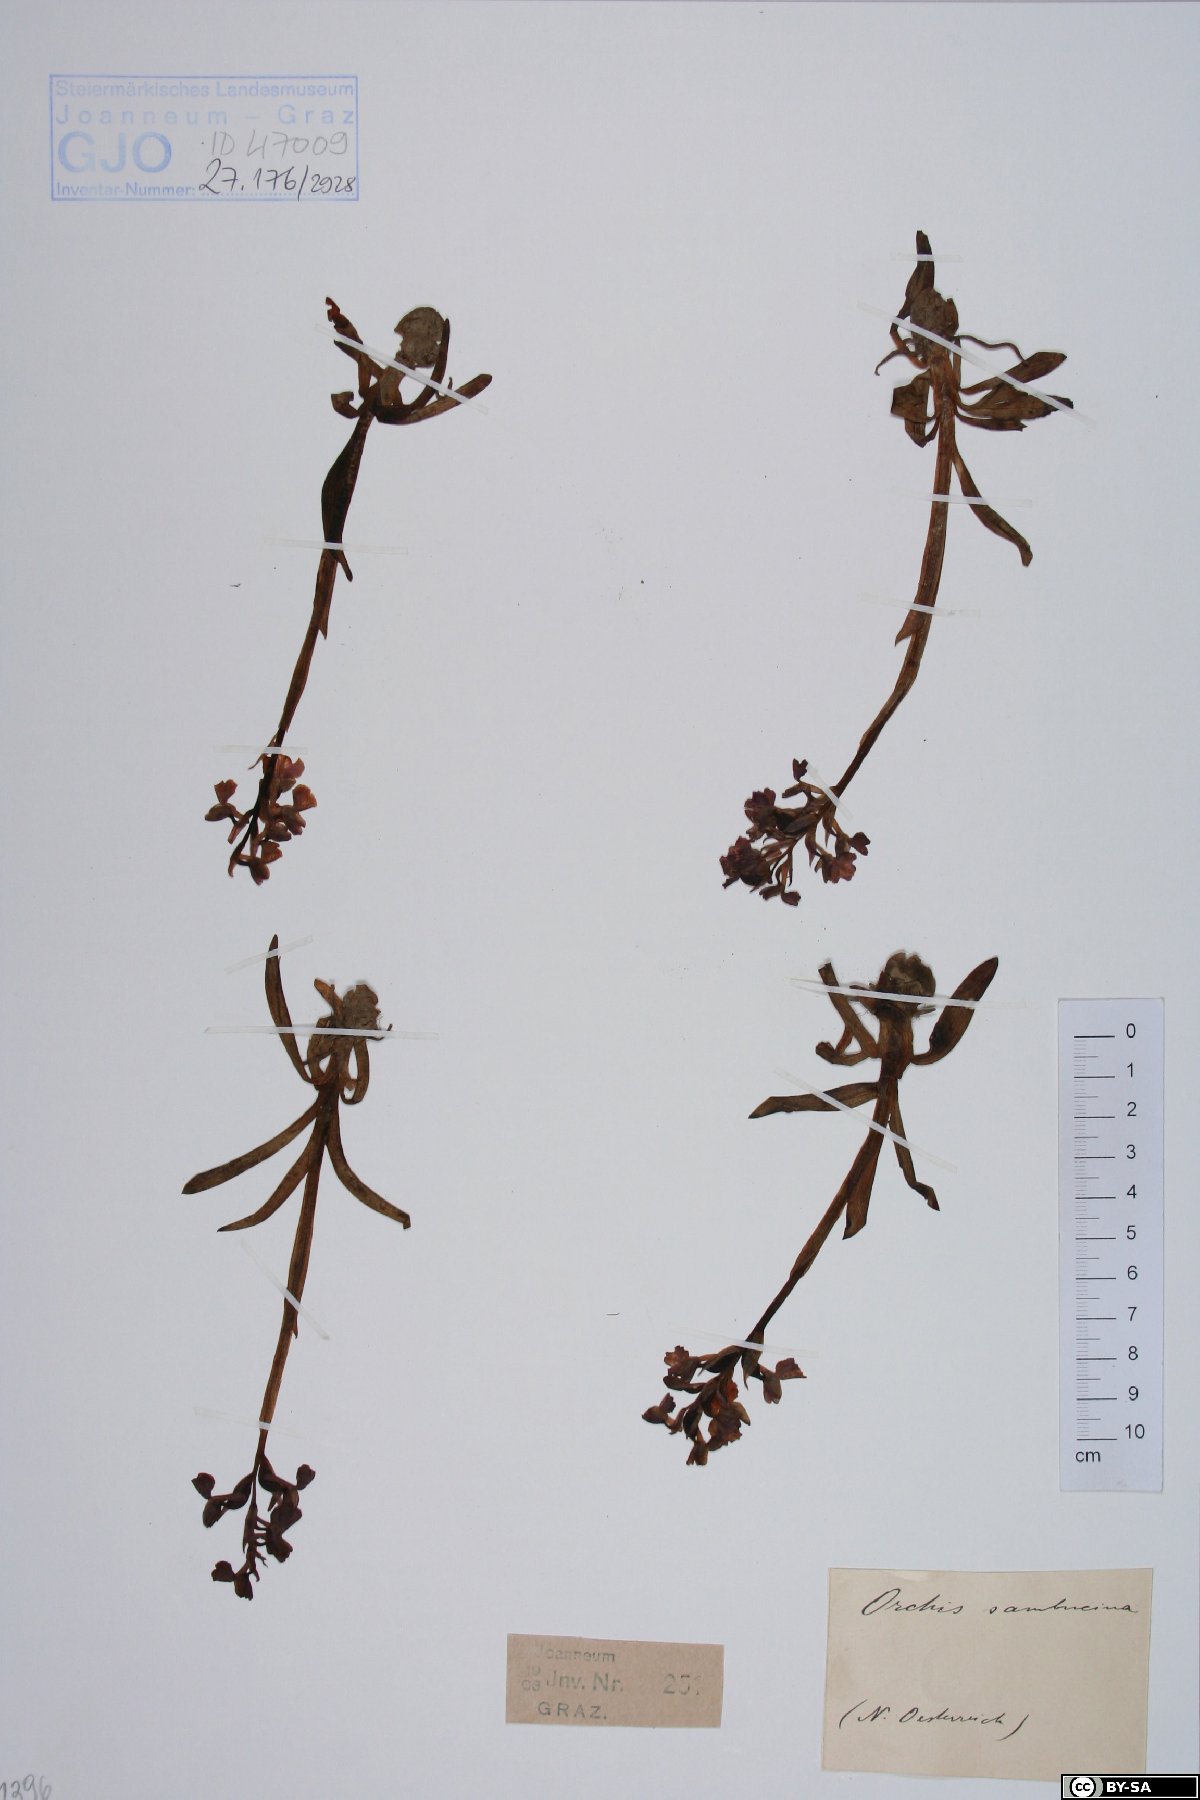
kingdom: Plantae
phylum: Tracheophyta
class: Liliopsida
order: Asparagales
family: Orchidaceae
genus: Dactylorhiza
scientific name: Dactylorhiza sambucina
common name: Elder-flowered orchid
